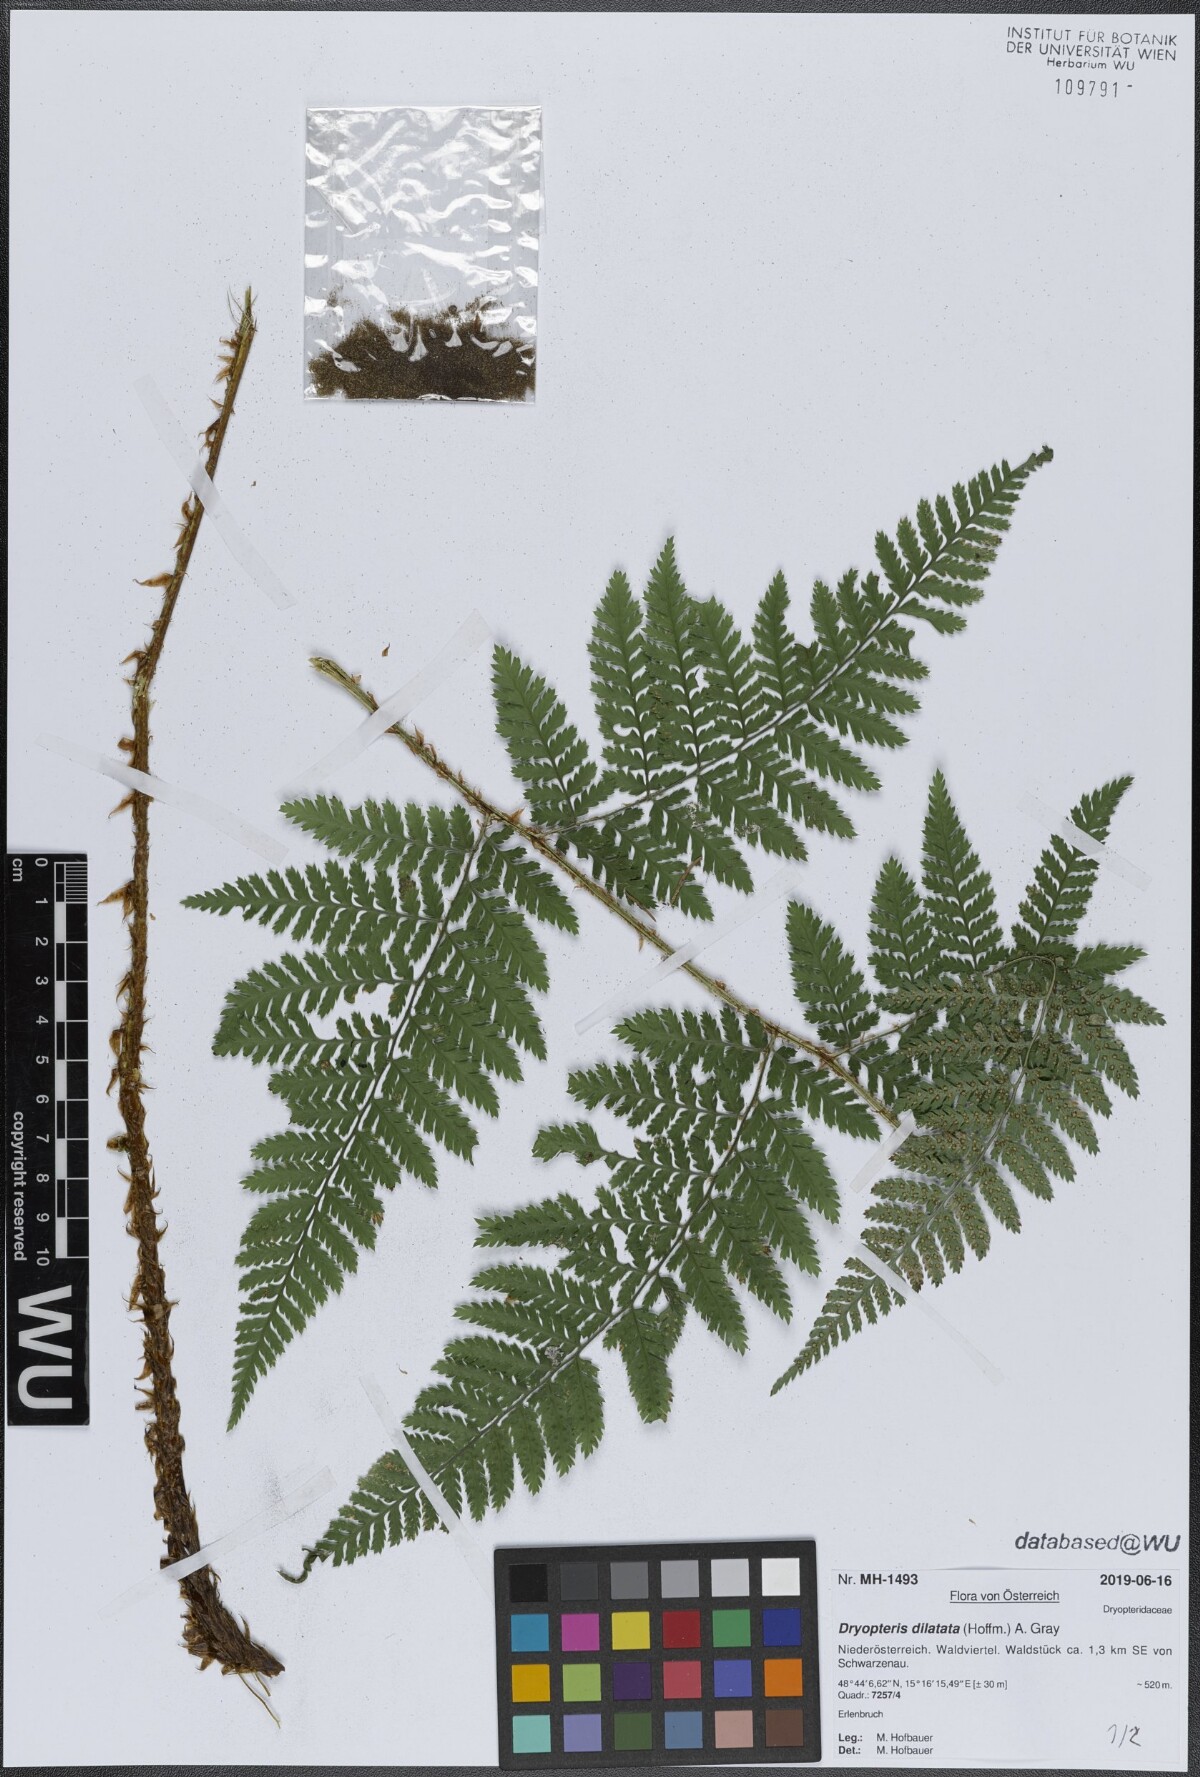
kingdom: Plantae
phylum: Tracheophyta
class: Polypodiopsida
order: Polypodiales
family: Dryopteridaceae
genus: Dryopteris
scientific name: Dryopteris dilatata
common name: Broad buckler-fern
